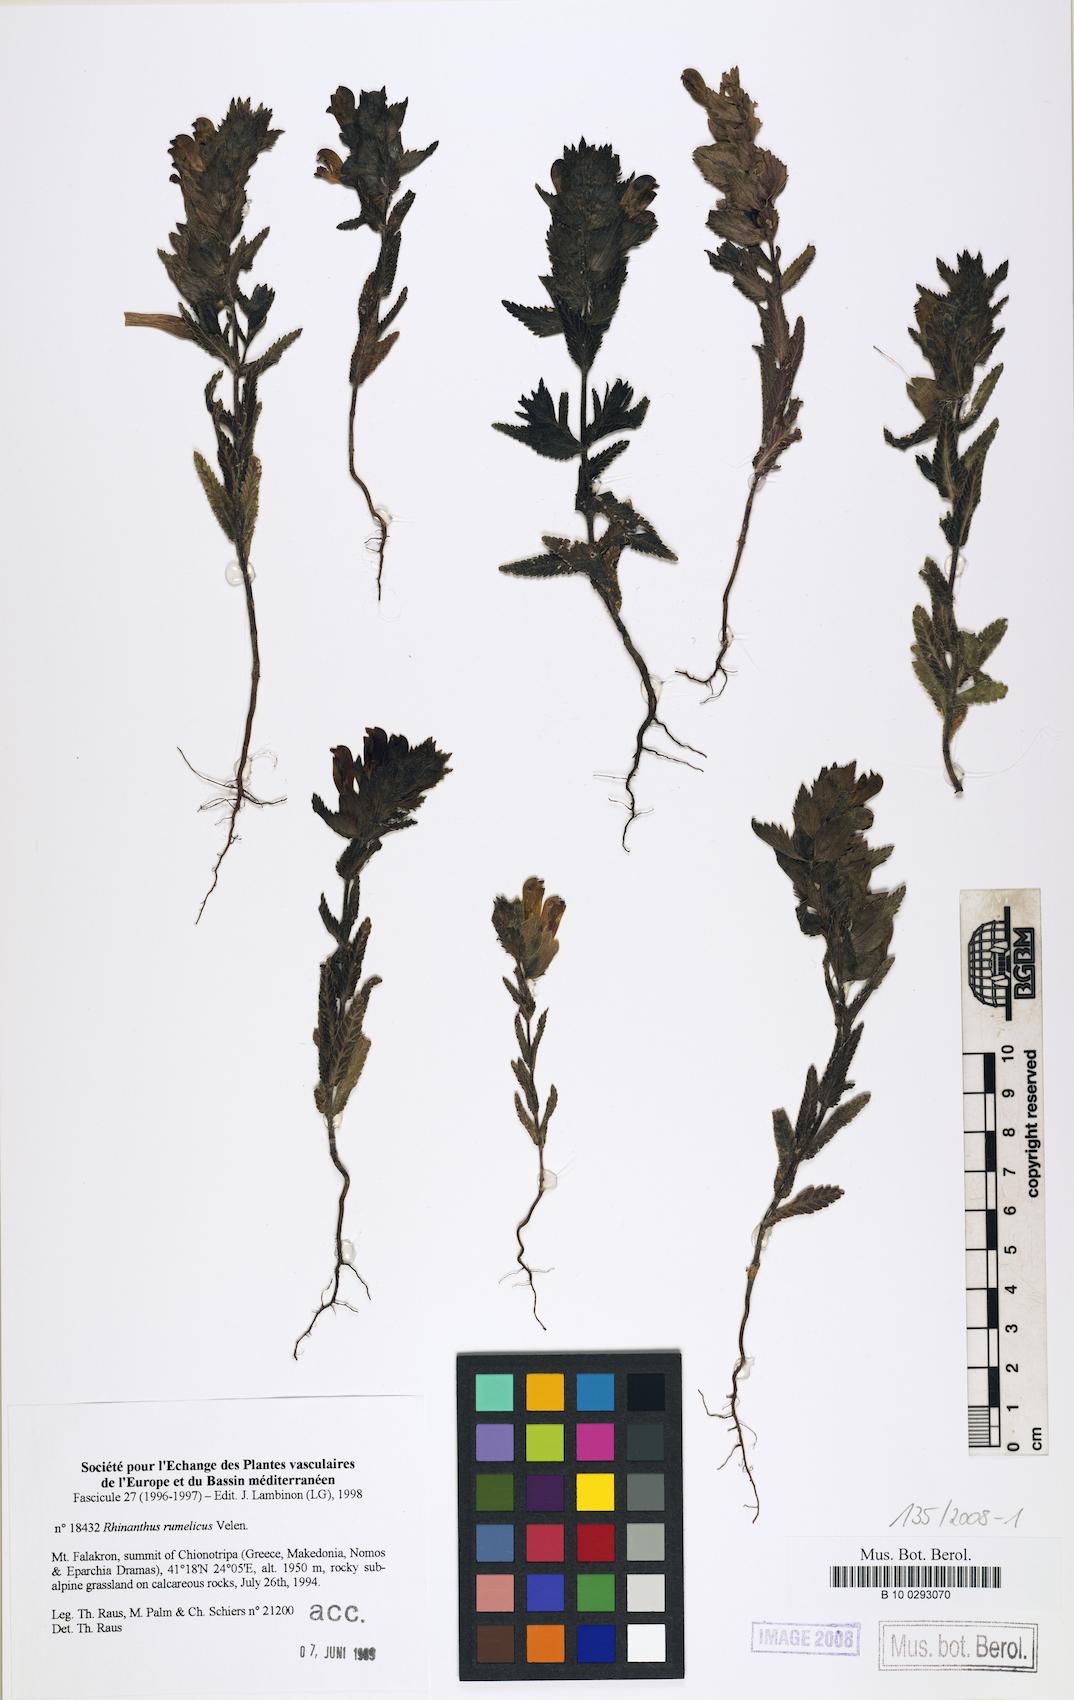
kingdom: Plantae
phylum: Tracheophyta
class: Magnoliopsida
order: Lamiales
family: Orobanchaceae
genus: Rhinanthus
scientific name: Rhinanthus rumelicus
